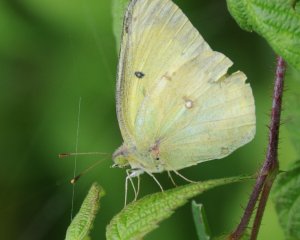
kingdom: Animalia
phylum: Arthropoda
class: Insecta
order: Lepidoptera
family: Pieridae
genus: Colias
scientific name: Colias philodice
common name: Clouded Sulphur
